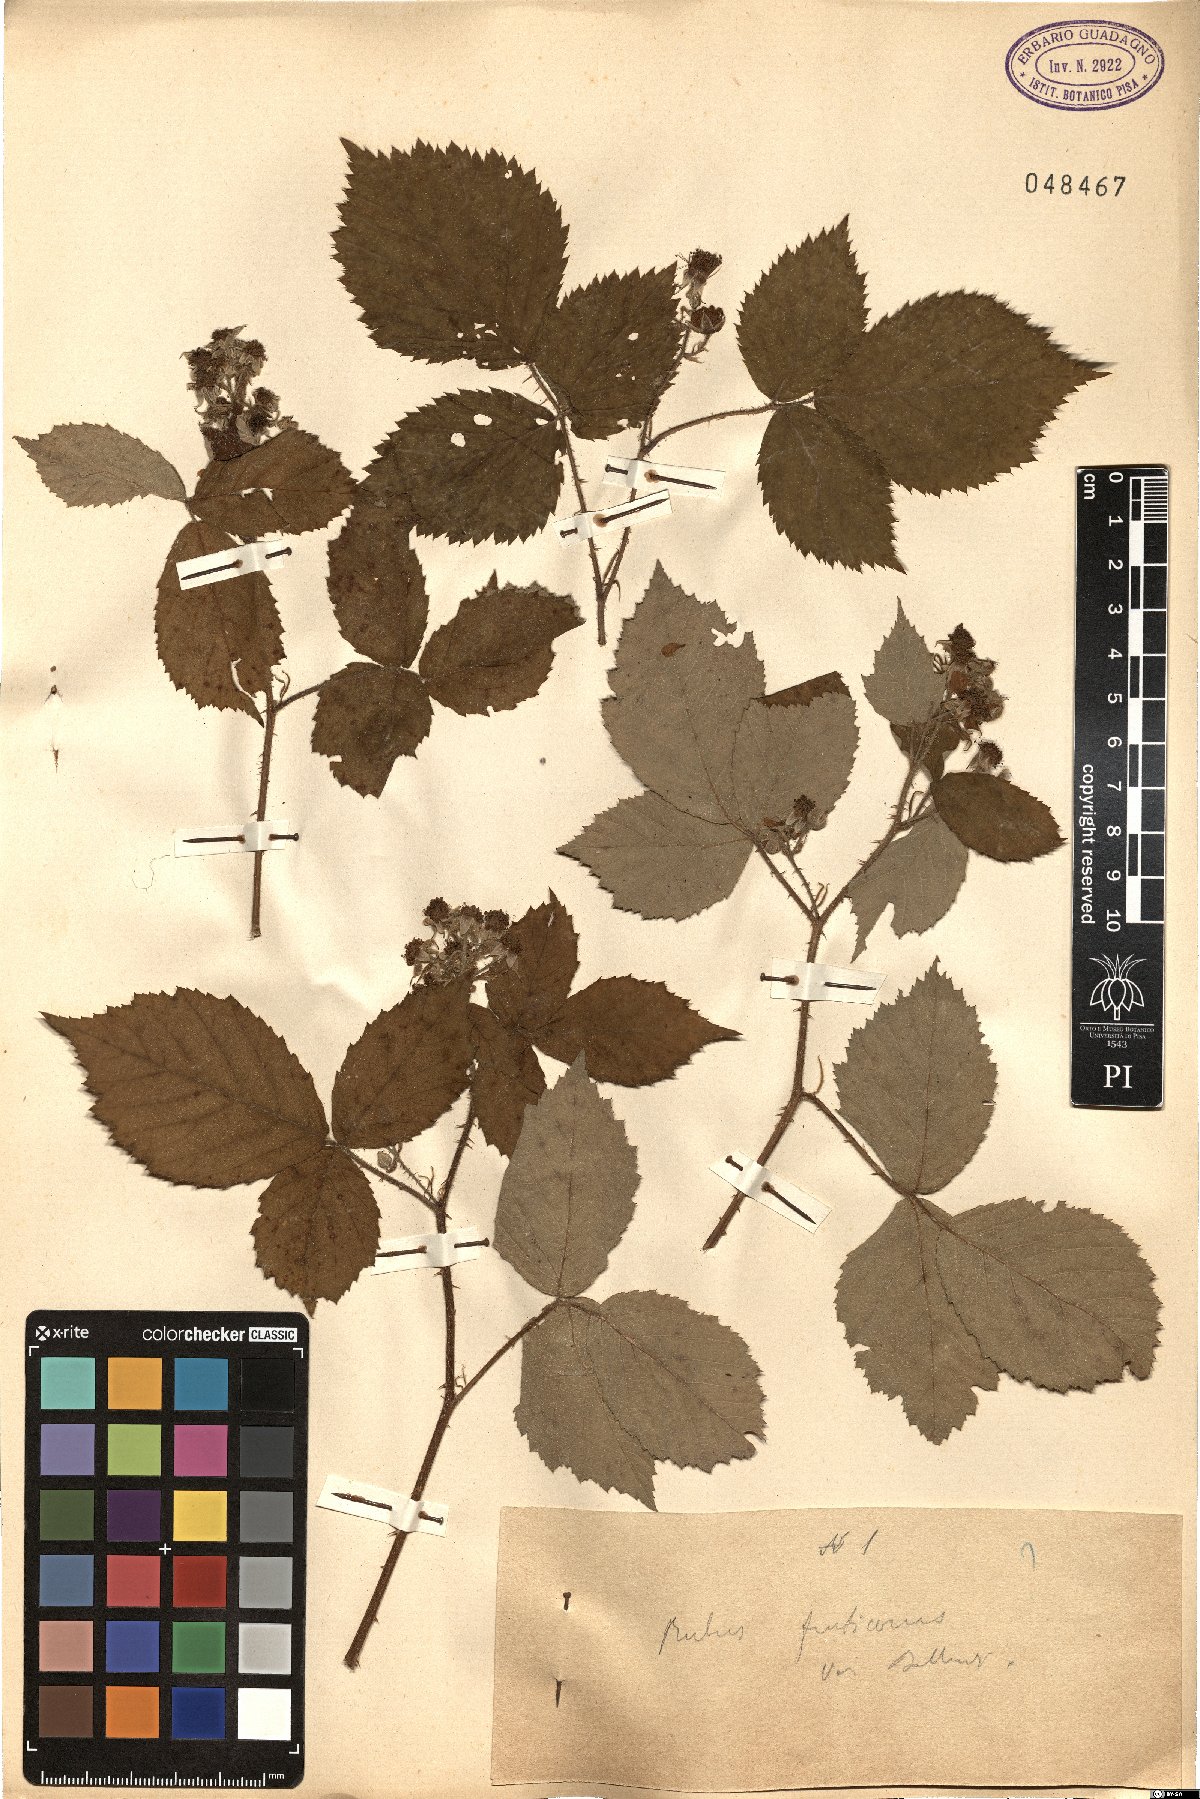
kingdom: Plantae
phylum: Tracheophyta
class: Magnoliopsida
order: Rosales
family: Rosaceae
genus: Rubus
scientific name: Rubus fruticosus
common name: Blackberry, bramble
